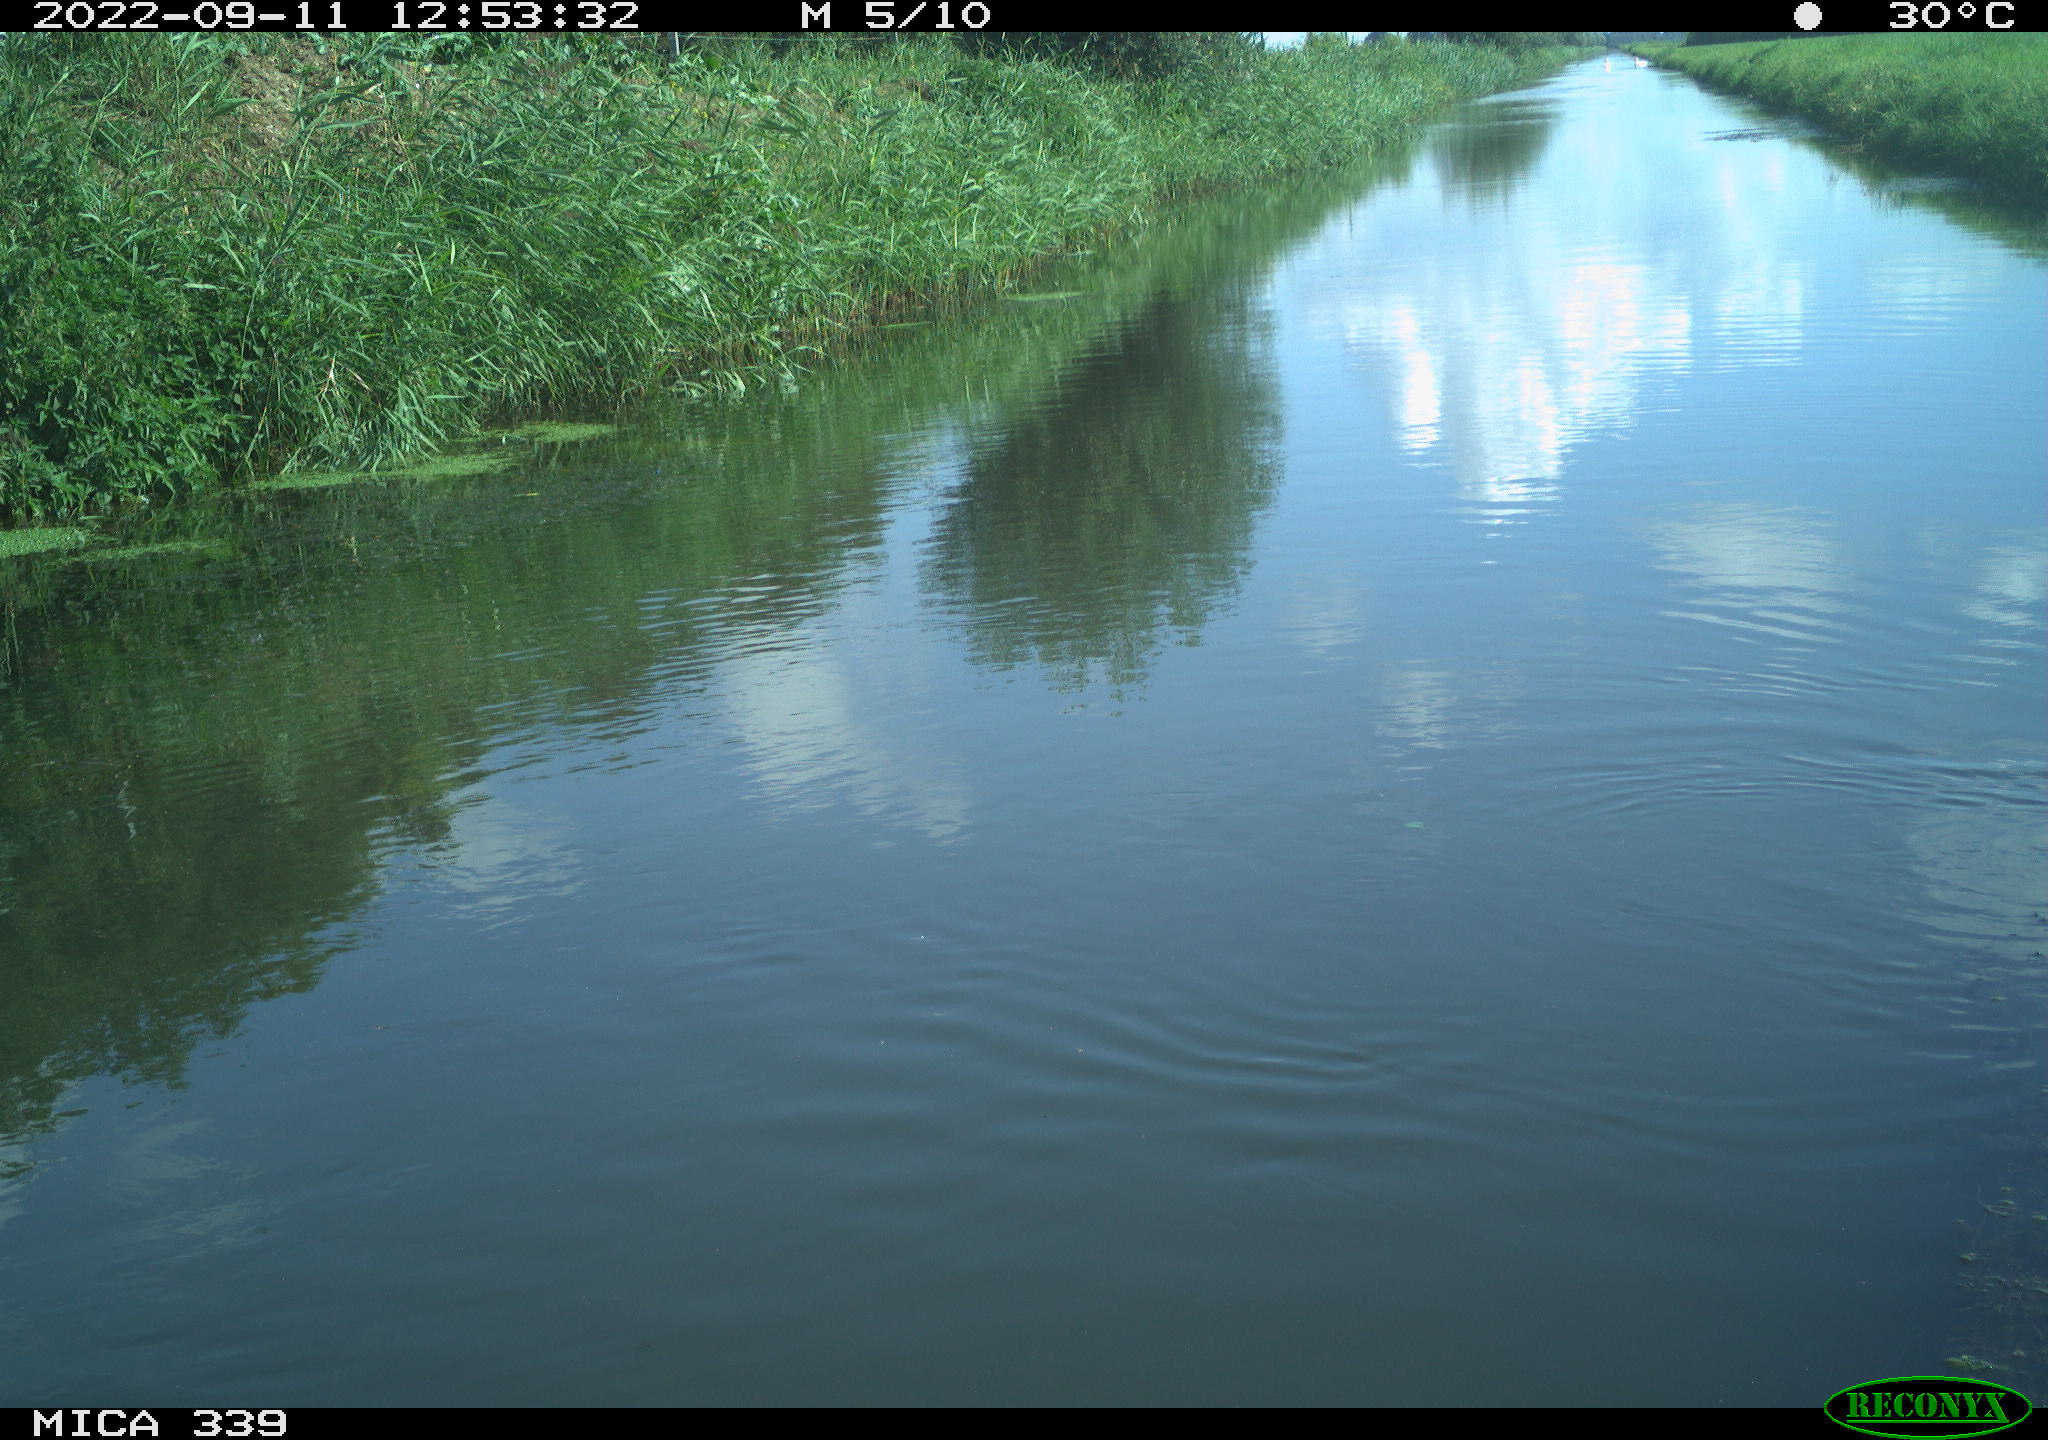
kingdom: Animalia
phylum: Chordata
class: Aves
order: Anseriformes
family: Anatidae
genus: Anas
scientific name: Anas
